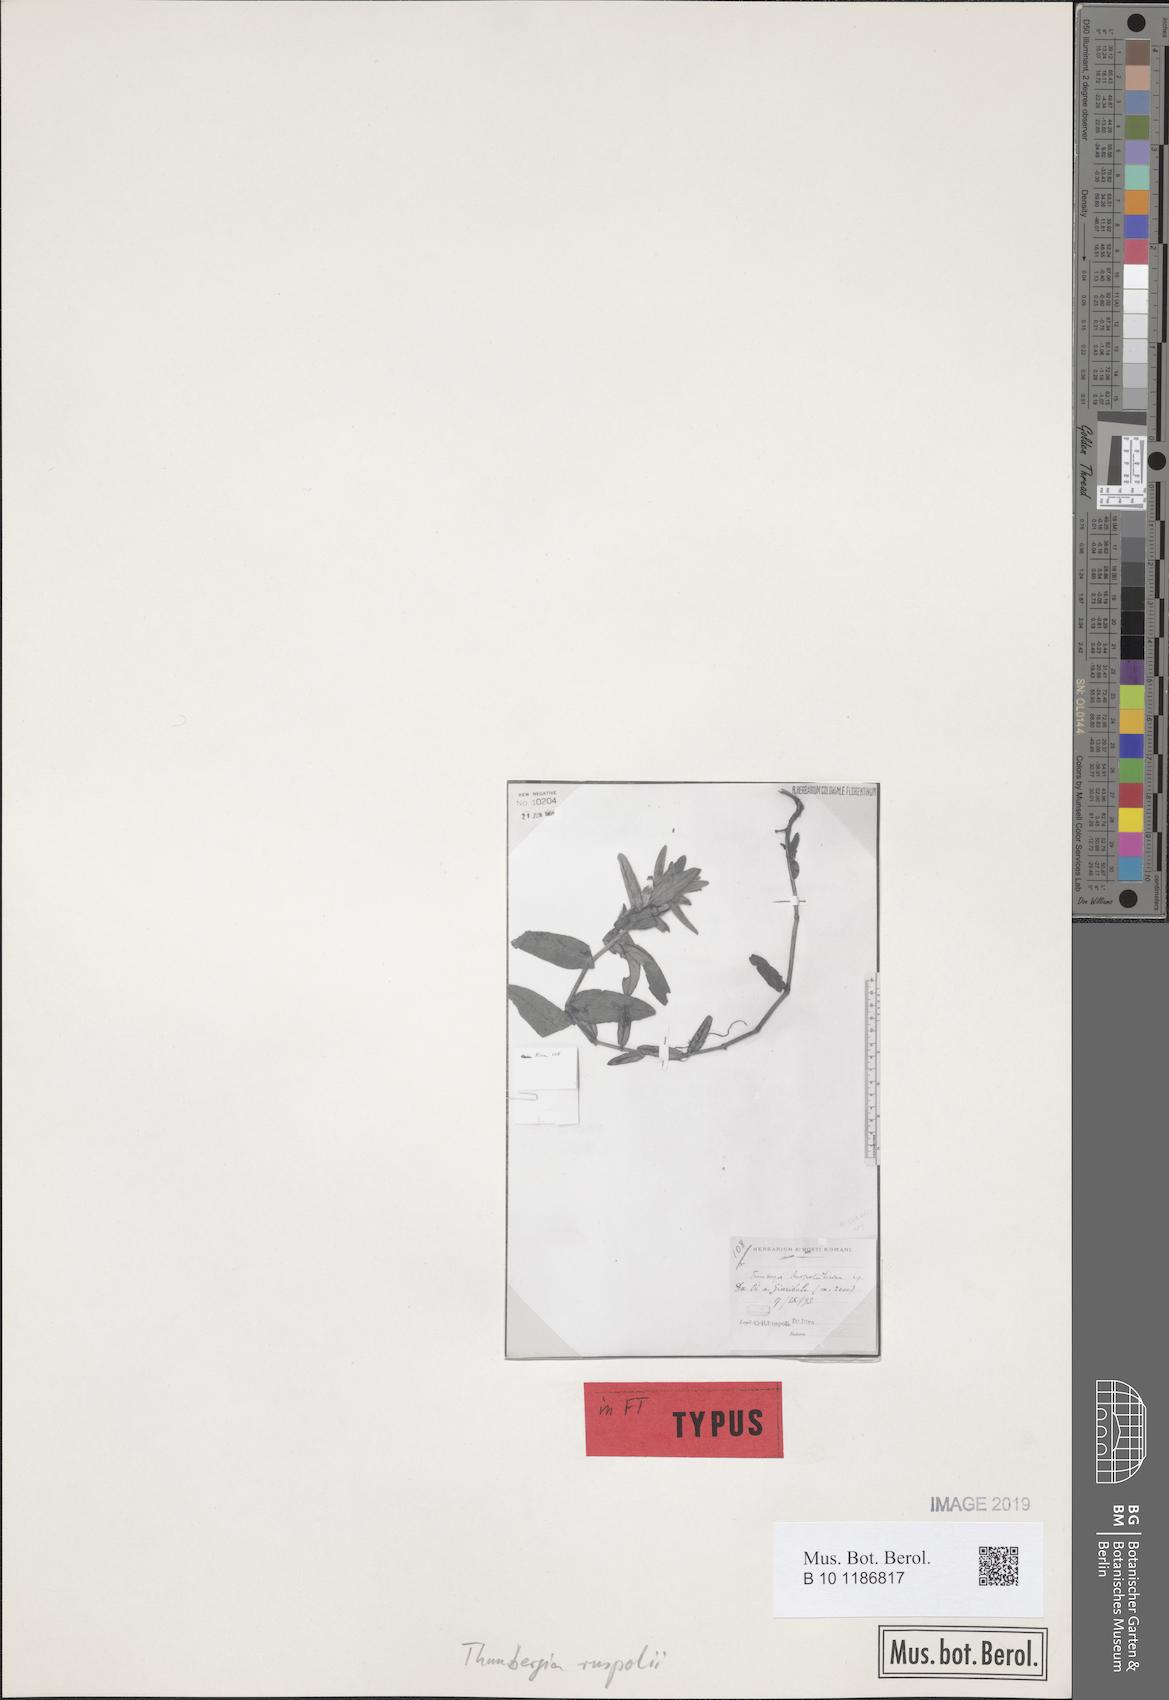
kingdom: Plantae
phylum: Tracheophyta
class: Magnoliopsida
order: Lamiales
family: Acanthaceae
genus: Thunbergia
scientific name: Thunbergia ruspolii
